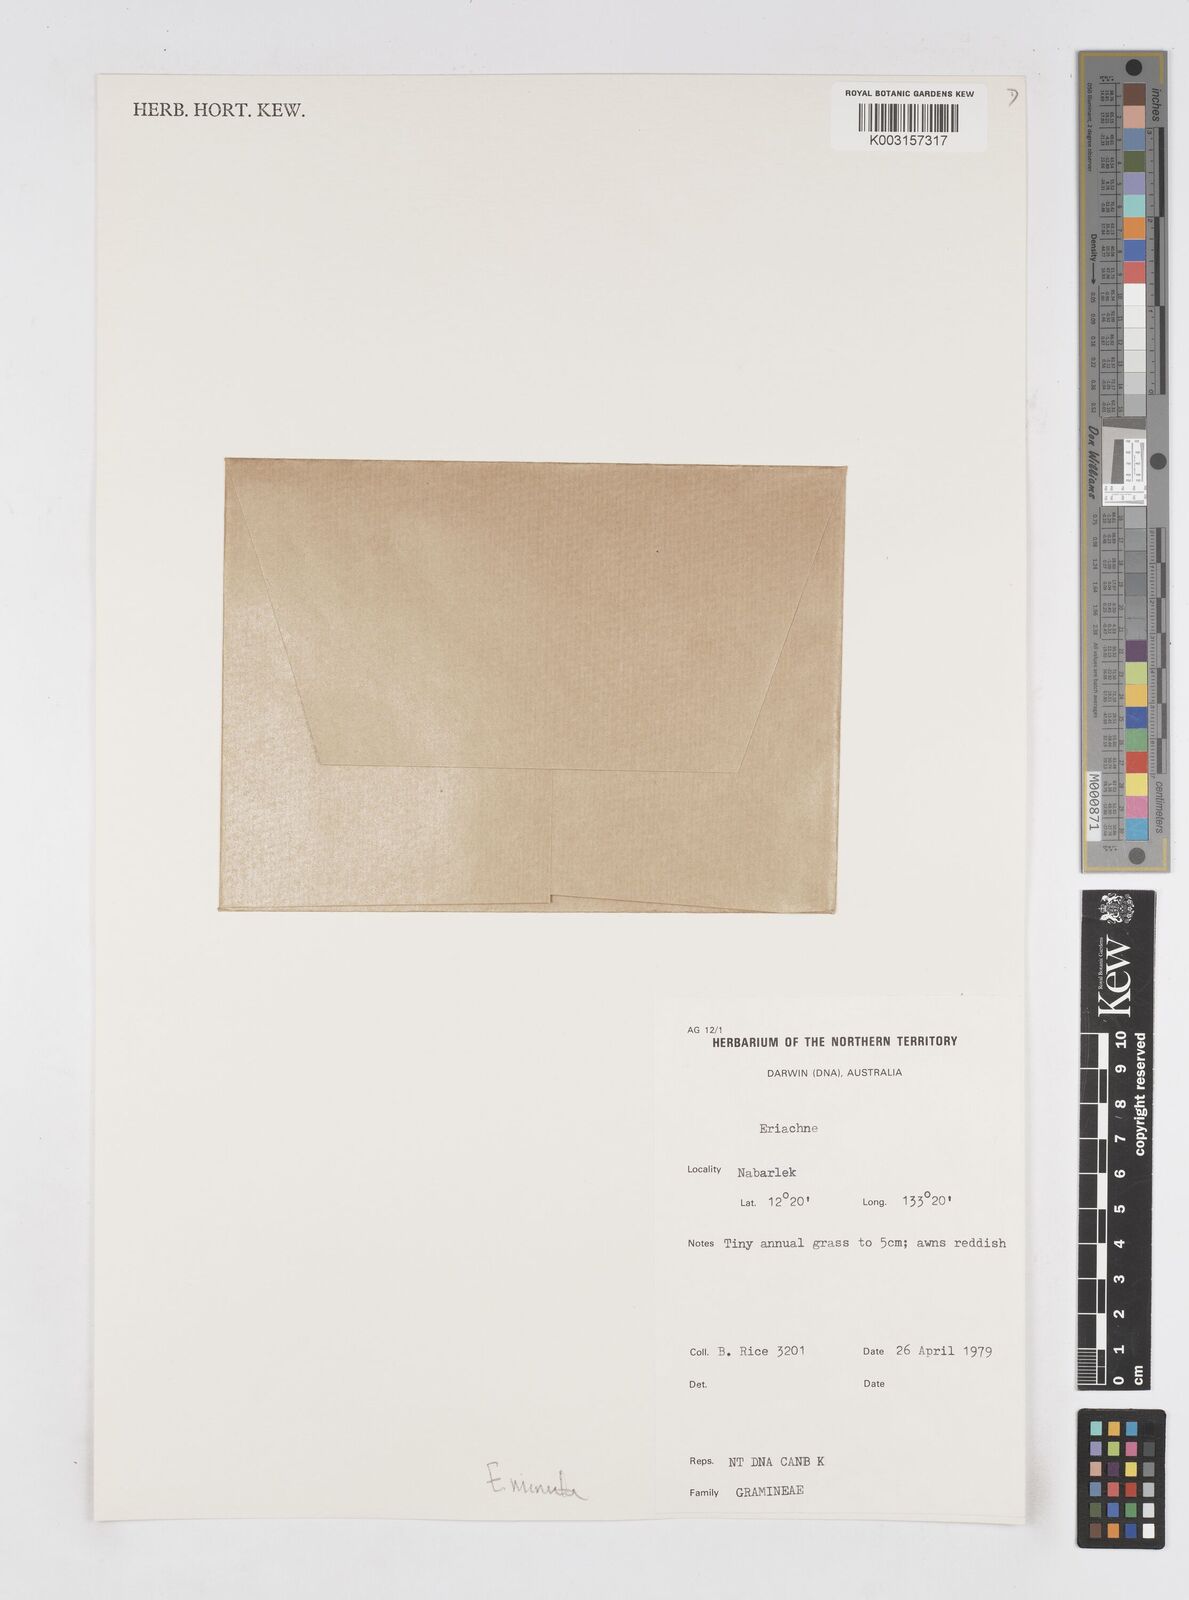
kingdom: Plantae
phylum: Tracheophyta
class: Liliopsida
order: Poales
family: Poaceae
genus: Eriachne
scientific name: Eriachne minuta
